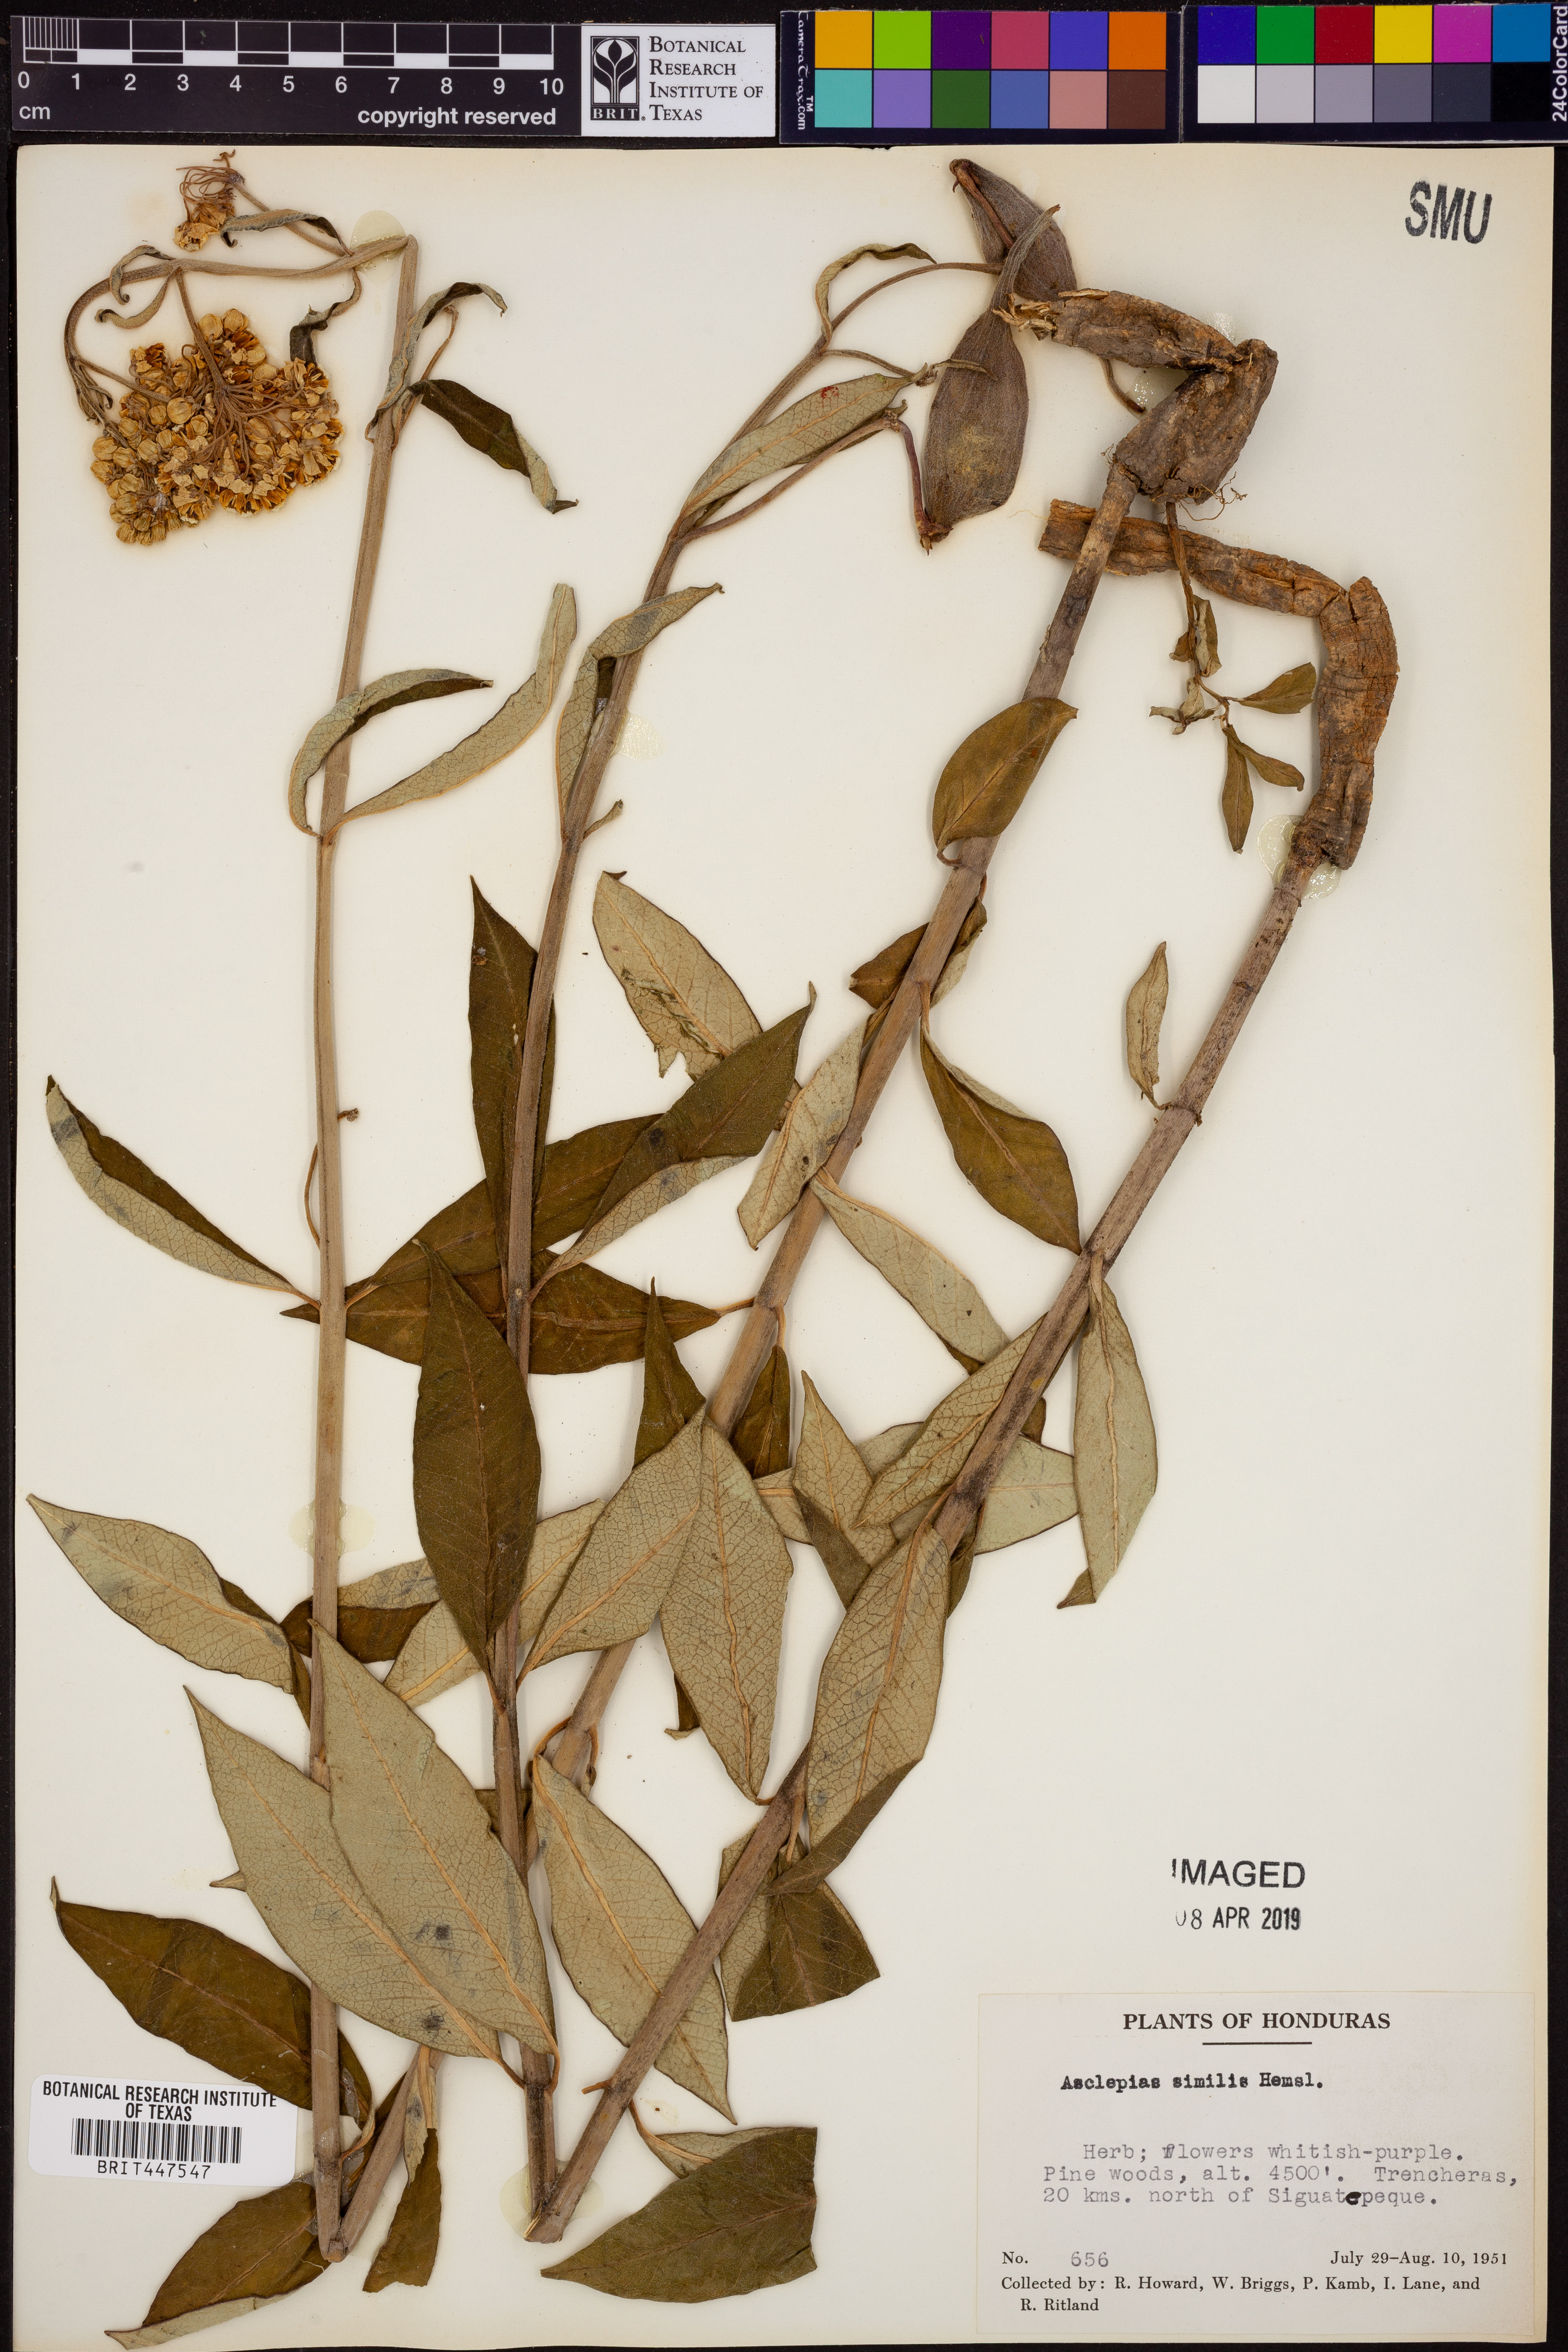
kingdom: Plantae
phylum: Tracheophyta
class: Magnoliopsida
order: Gentianales
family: Apocynaceae
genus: Asclepias
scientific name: Asclepias similis
